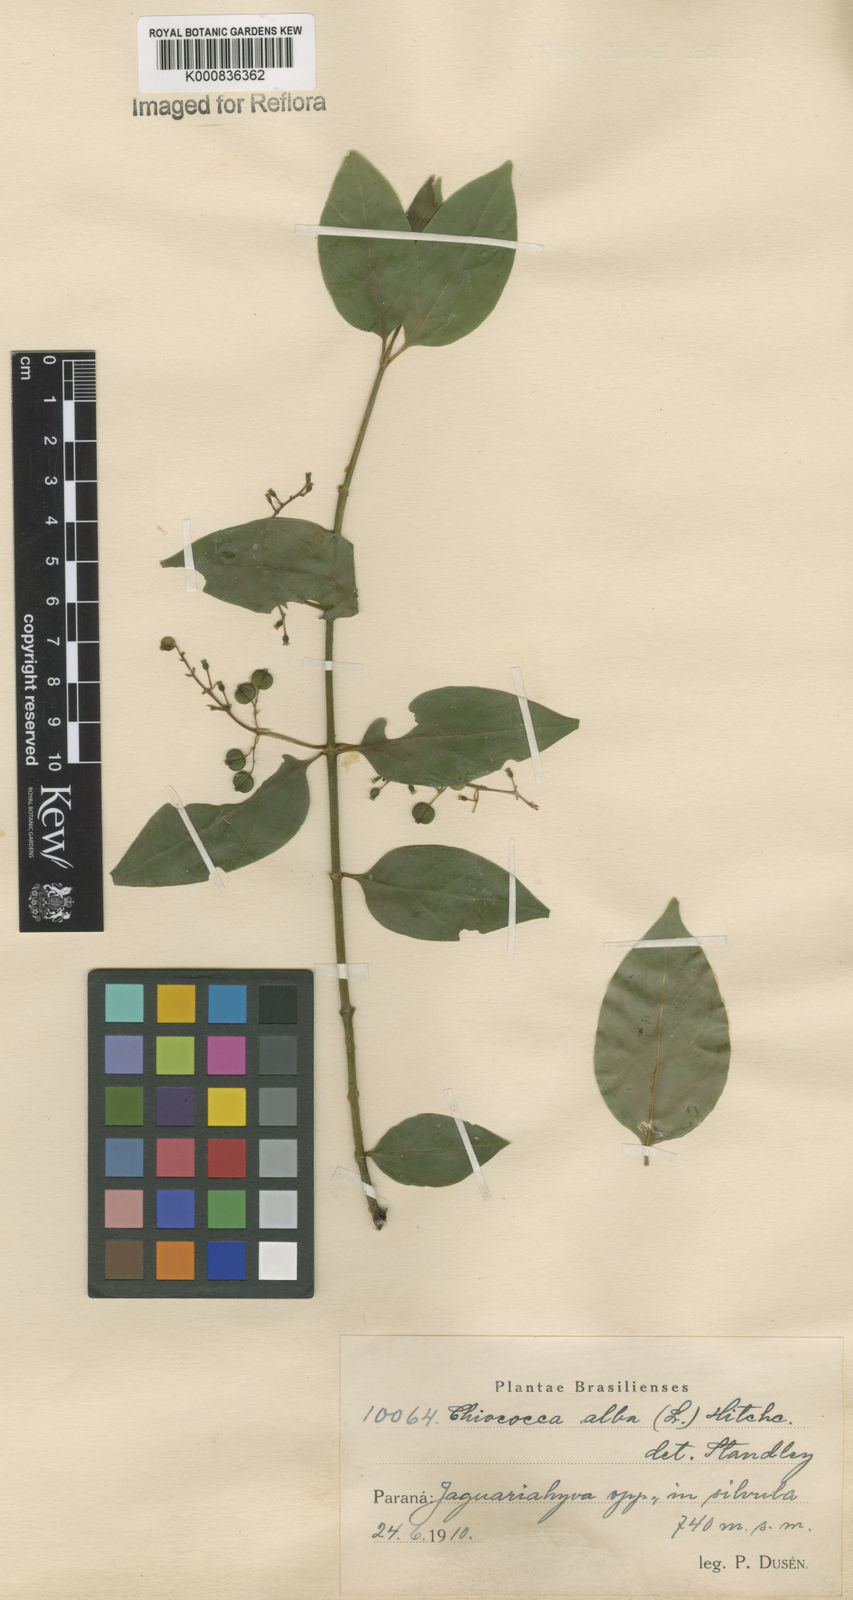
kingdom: Plantae
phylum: Tracheophyta
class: Magnoliopsida
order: Gentianales
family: Rubiaceae
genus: Chiococca
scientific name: Chiococca alba
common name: Snowberry
